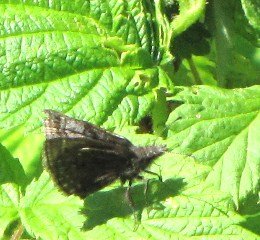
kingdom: Animalia
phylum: Arthropoda
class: Insecta
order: Lepidoptera
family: Hesperiidae
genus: Erynnis
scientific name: Erynnis icelus
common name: Dreamy Duskywing
